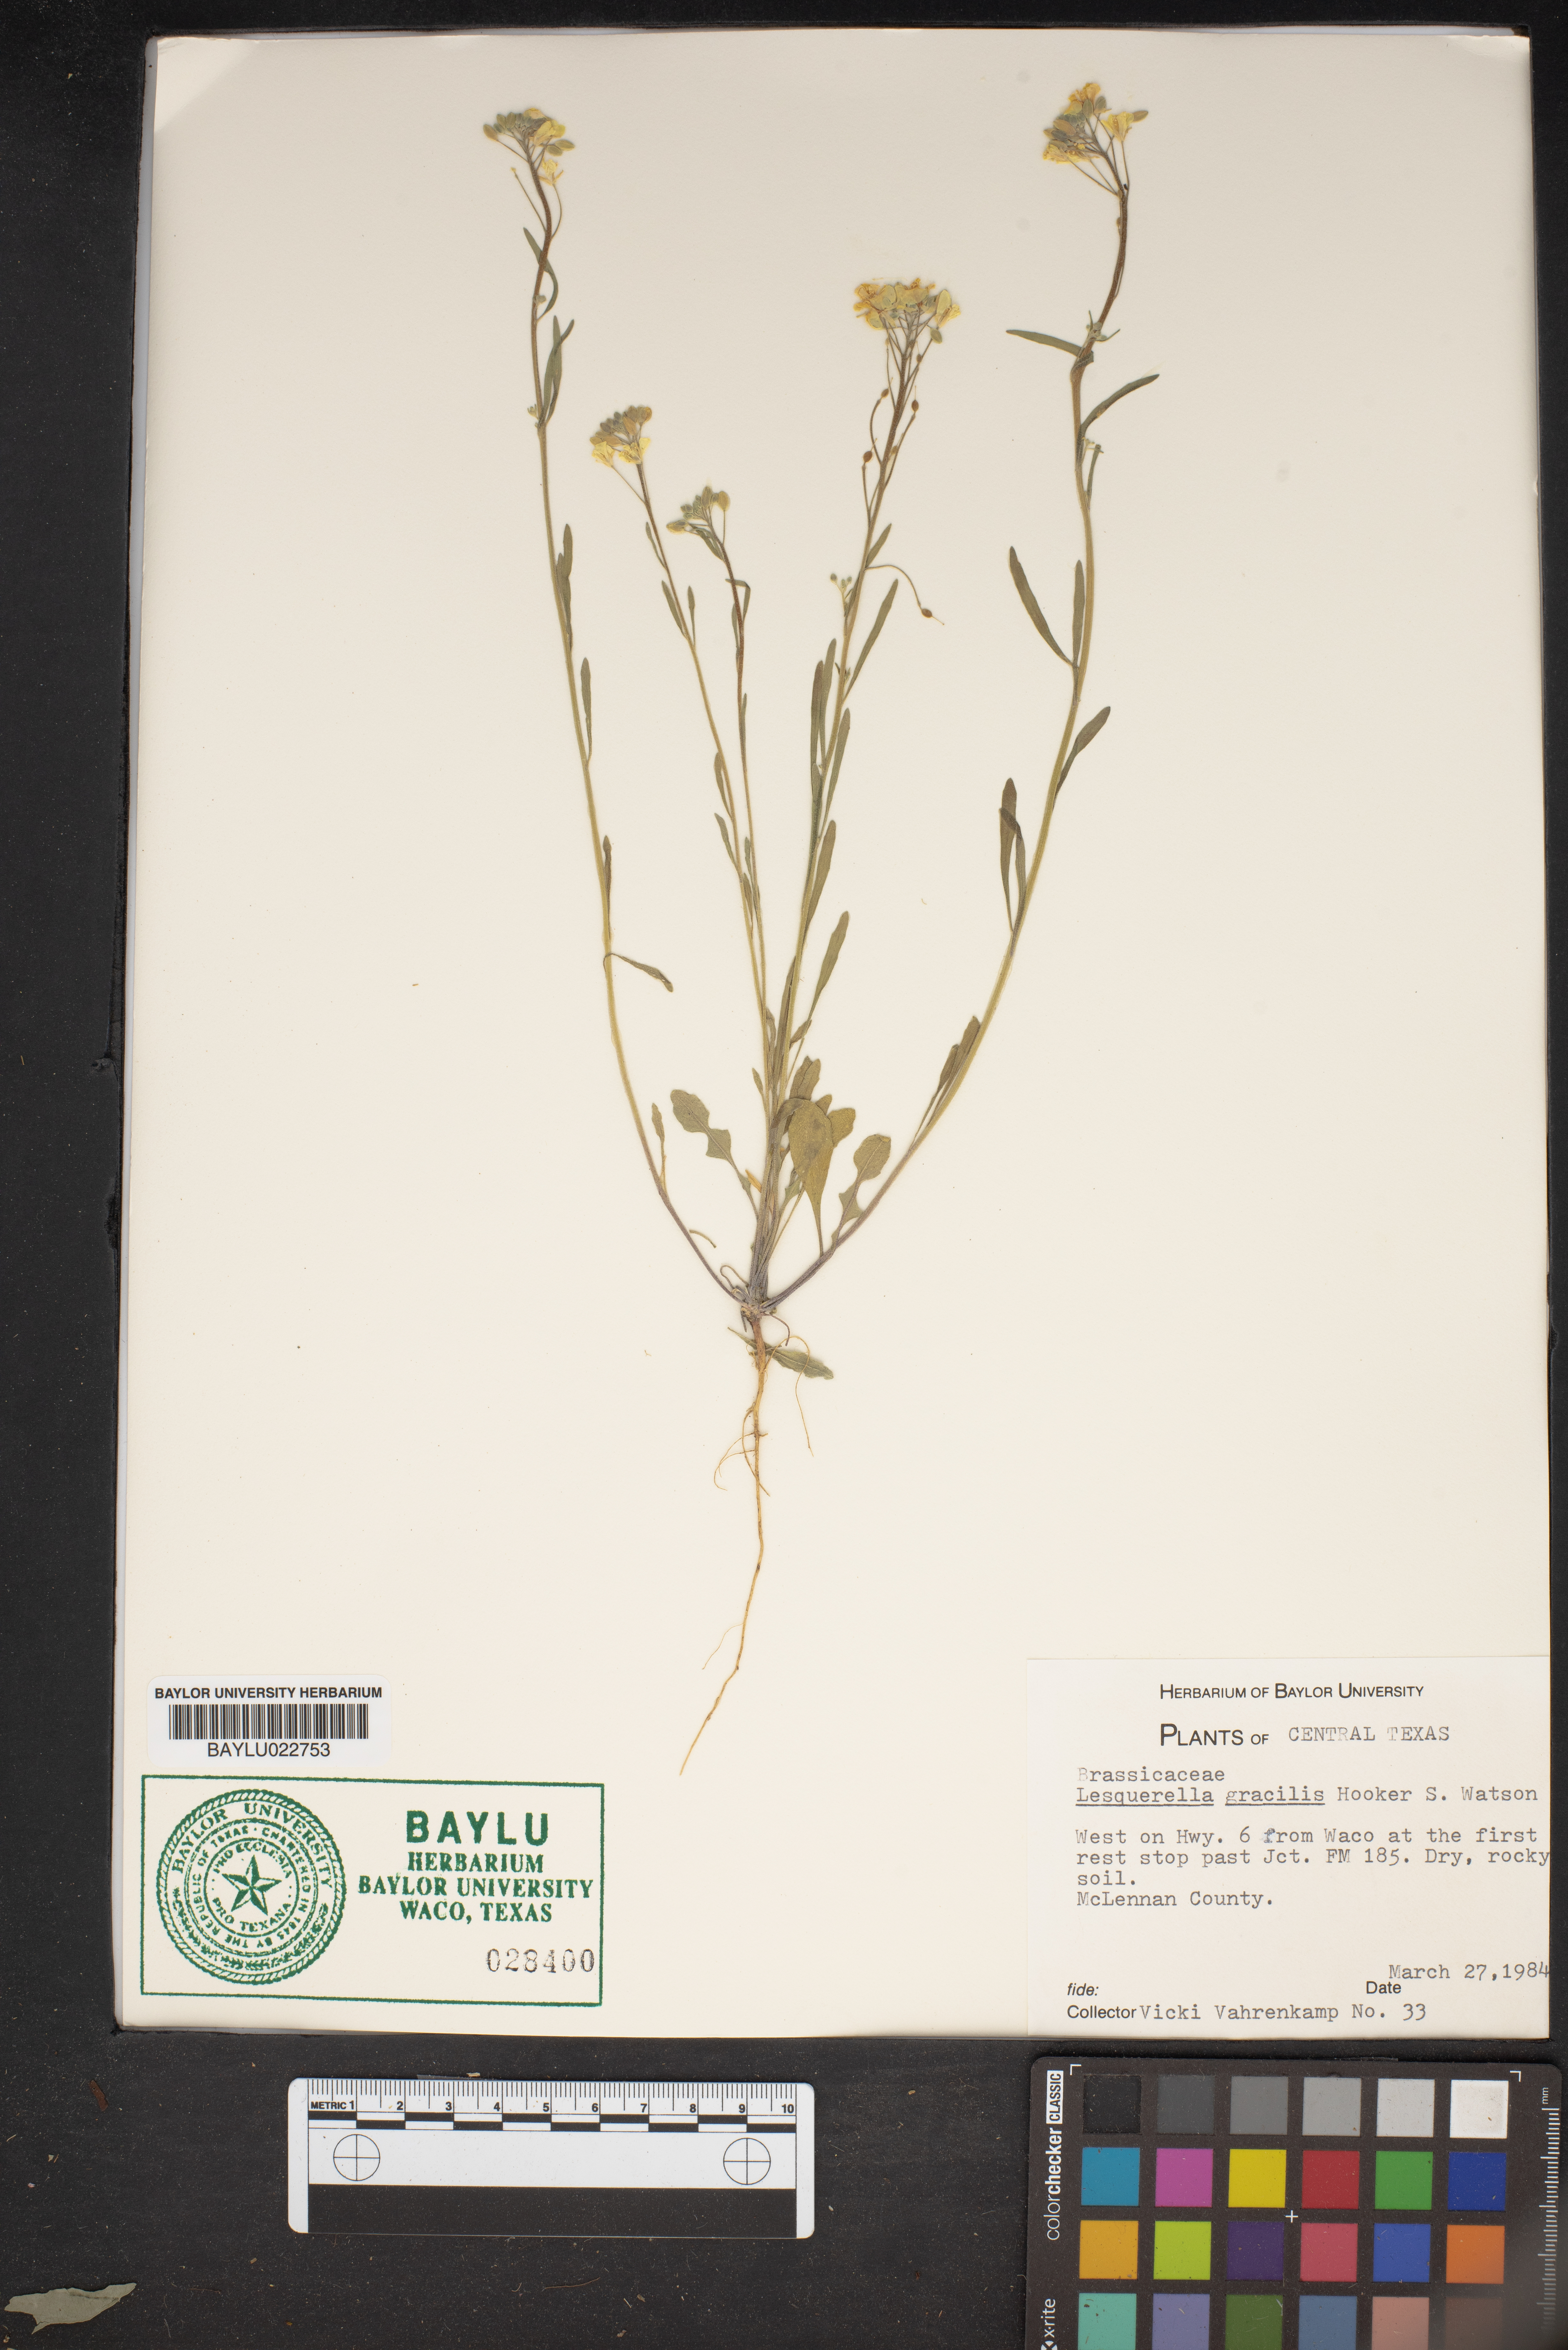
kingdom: Plantae
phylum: Tracheophyta
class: Magnoliopsida
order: Brassicales
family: Brassicaceae
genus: Physaria
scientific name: Physaria gracilis
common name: Spreading bladderpod
